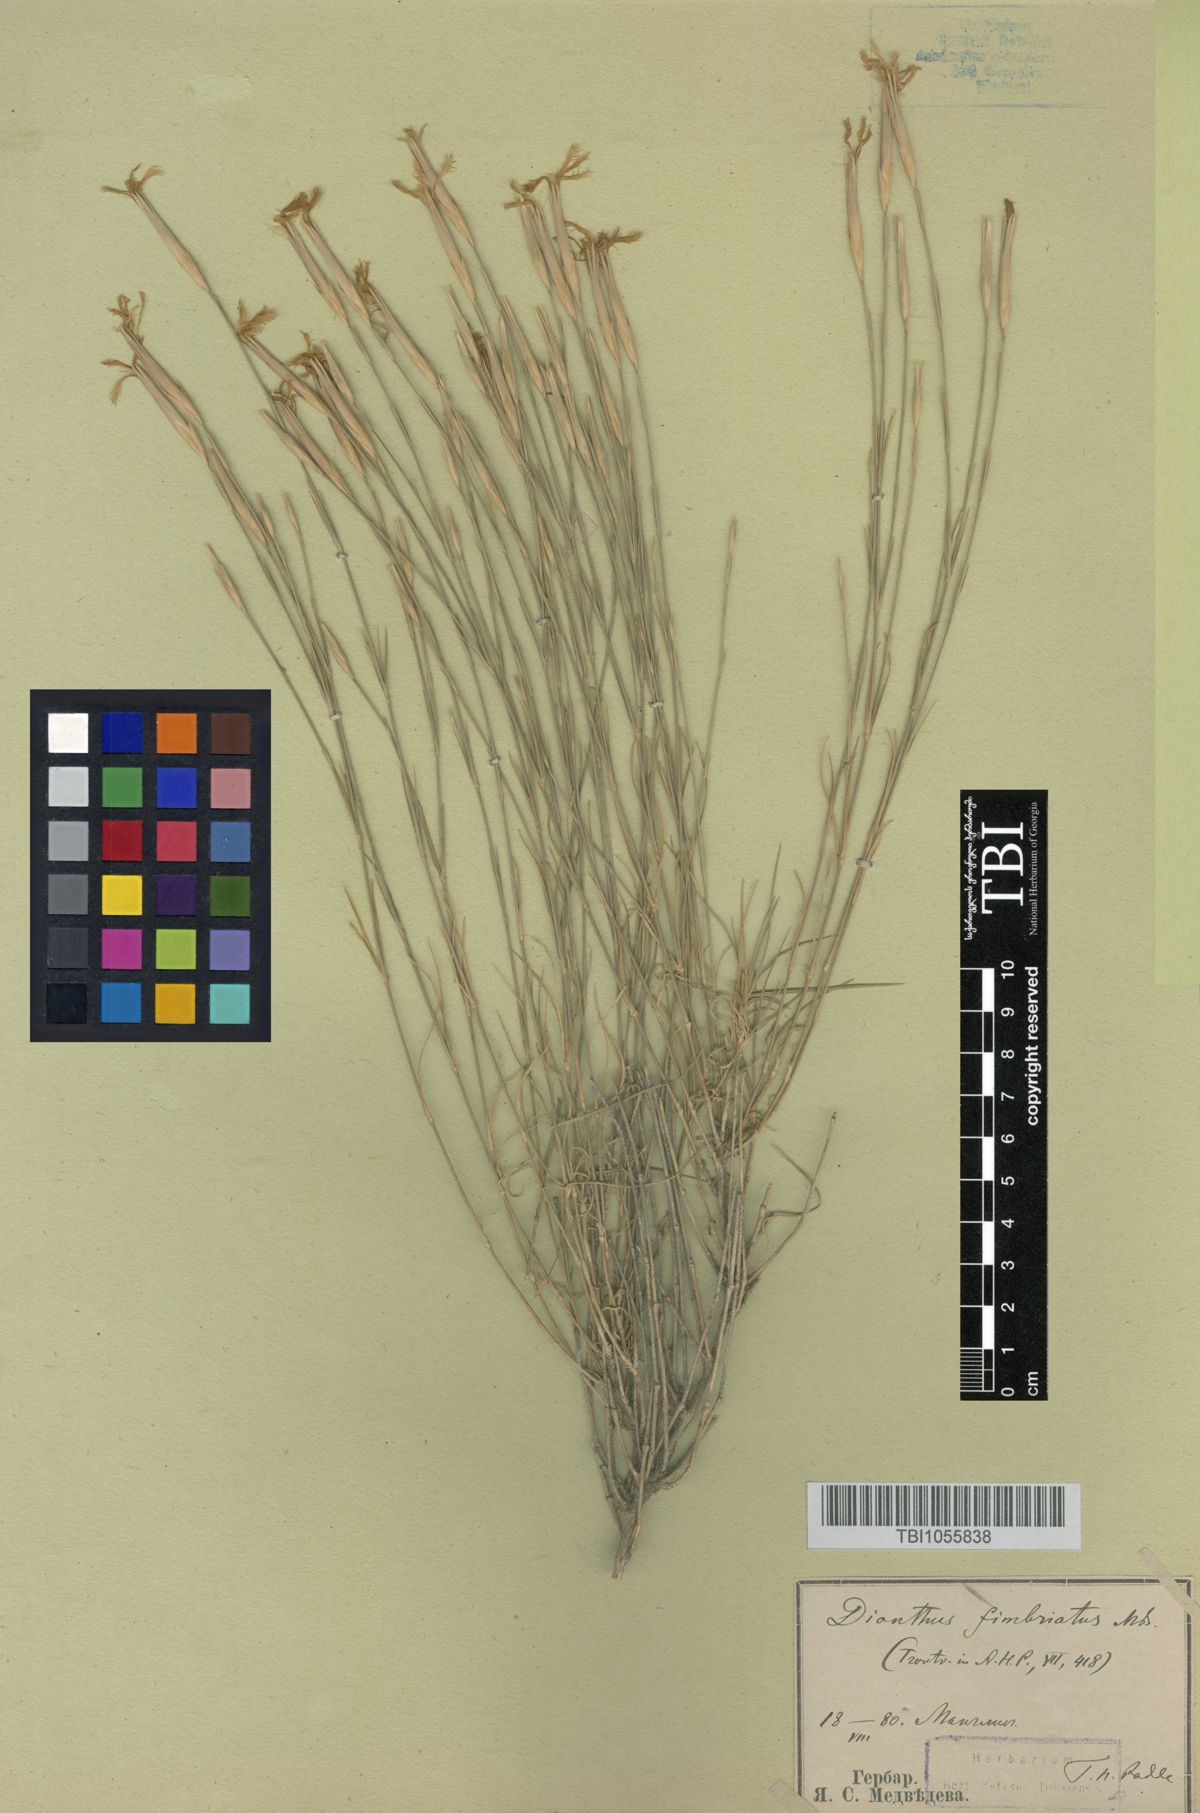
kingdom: Plantae
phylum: Tracheophyta
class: Magnoliopsida
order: Caryophyllales
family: Caryophyllaceae
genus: Dianthus
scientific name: Dianthus orientalis
